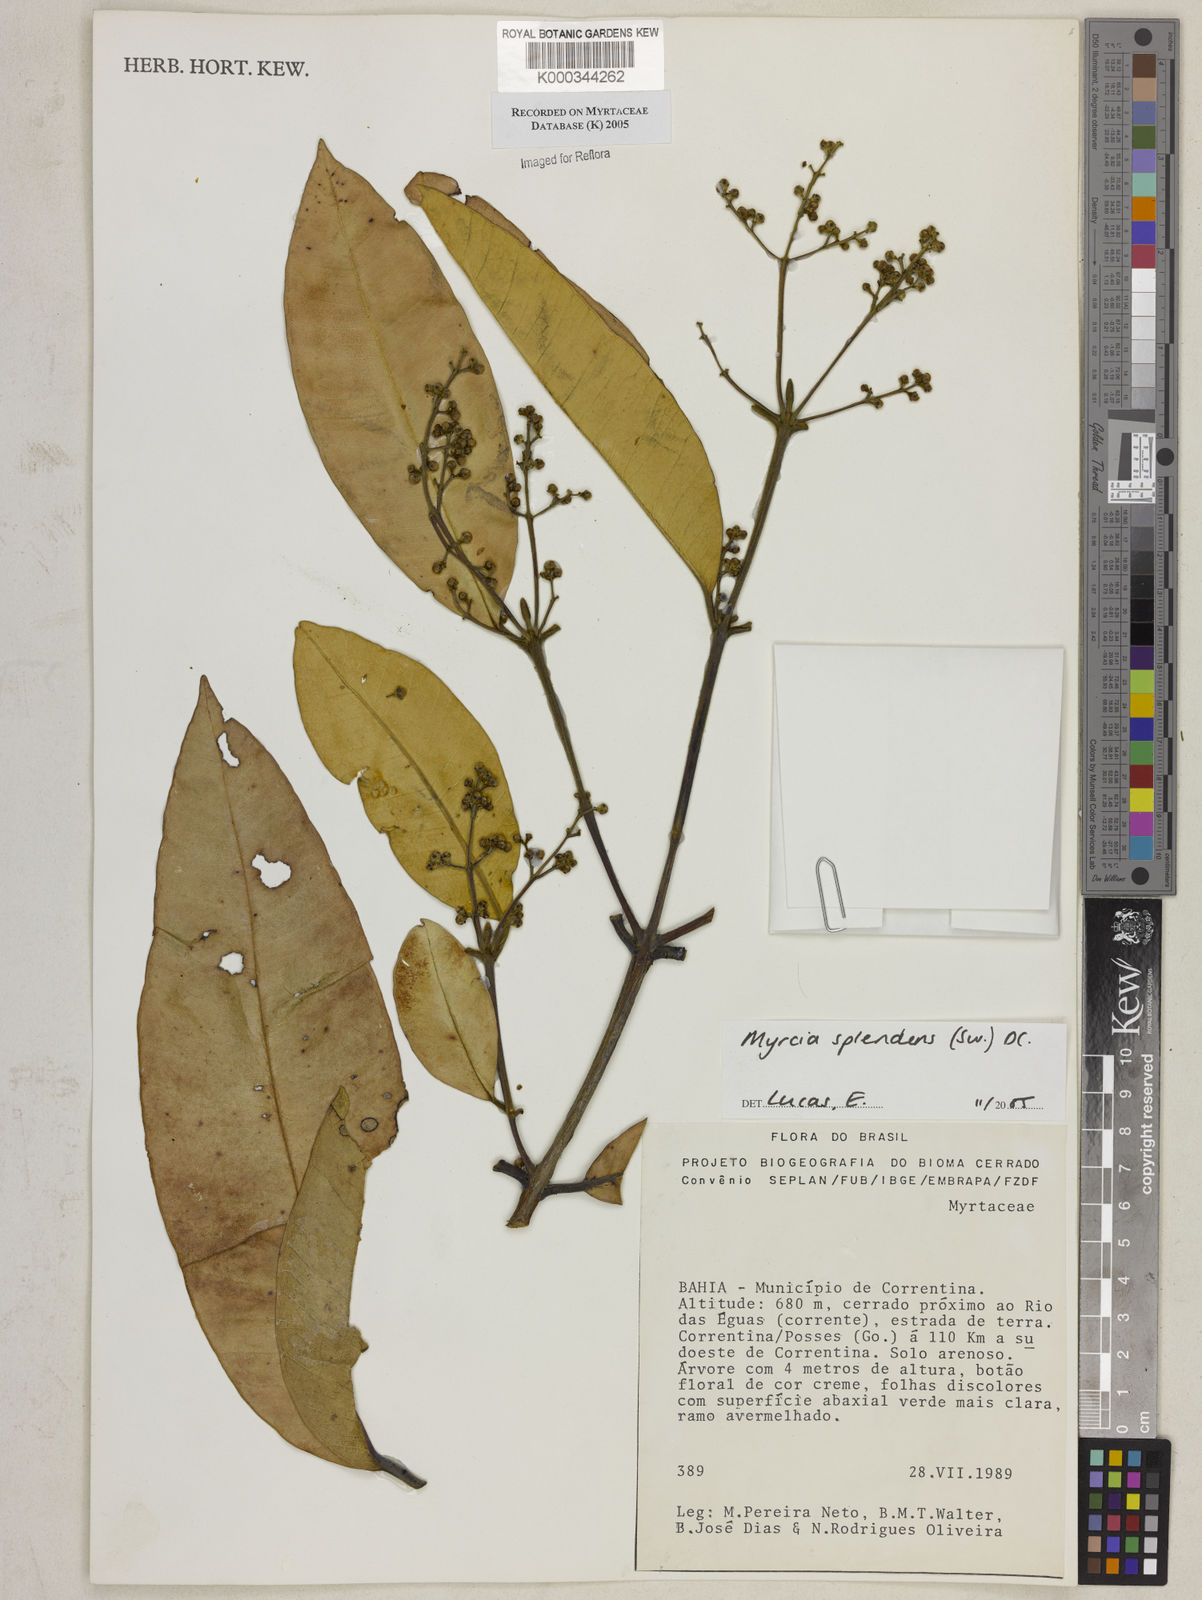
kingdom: Plantae
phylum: Tracheophyta
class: Magnoliopsida
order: Myrtales
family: Myrtaceae
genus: Myrcia
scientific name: Myrcia splendens
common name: Surinam cherry
